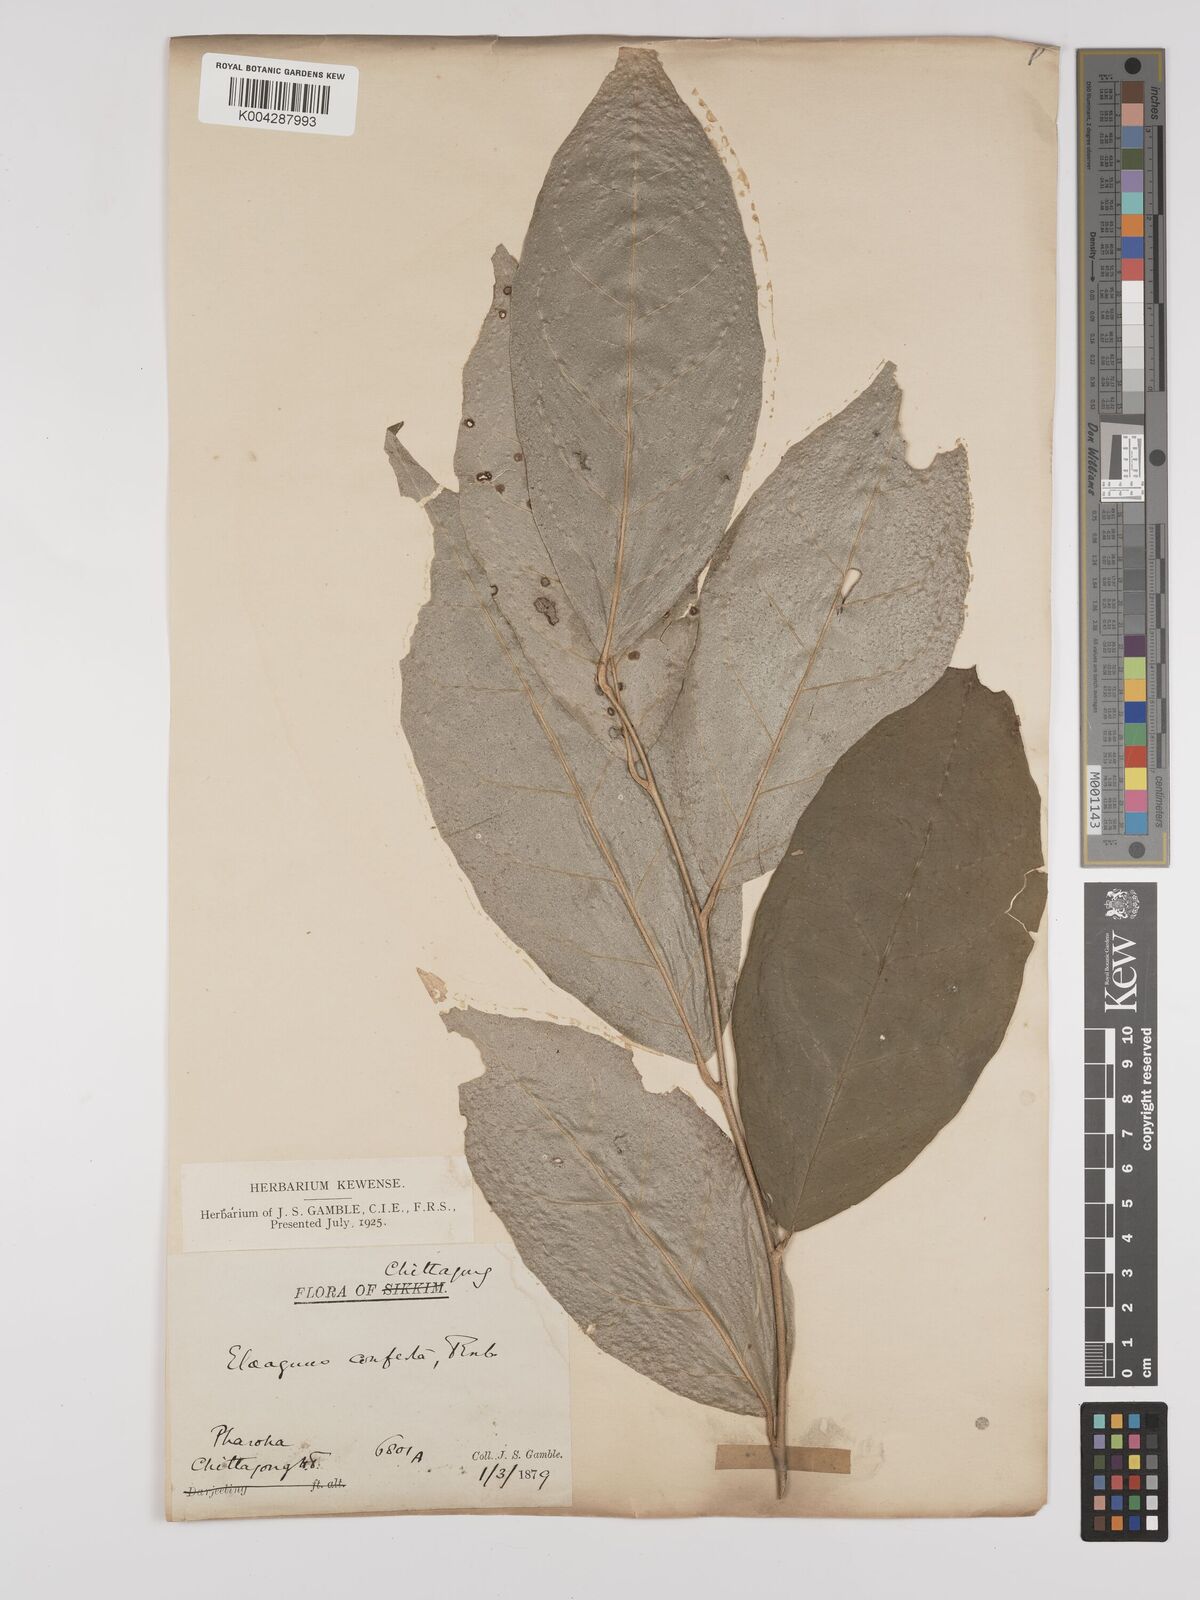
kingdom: Plantae
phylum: Tracheophyta
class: Magnoliopsida
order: Rosales
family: Elaeagnaceae
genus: Elaeagnus
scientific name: Elaeagnus latifolia
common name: Oleaster
